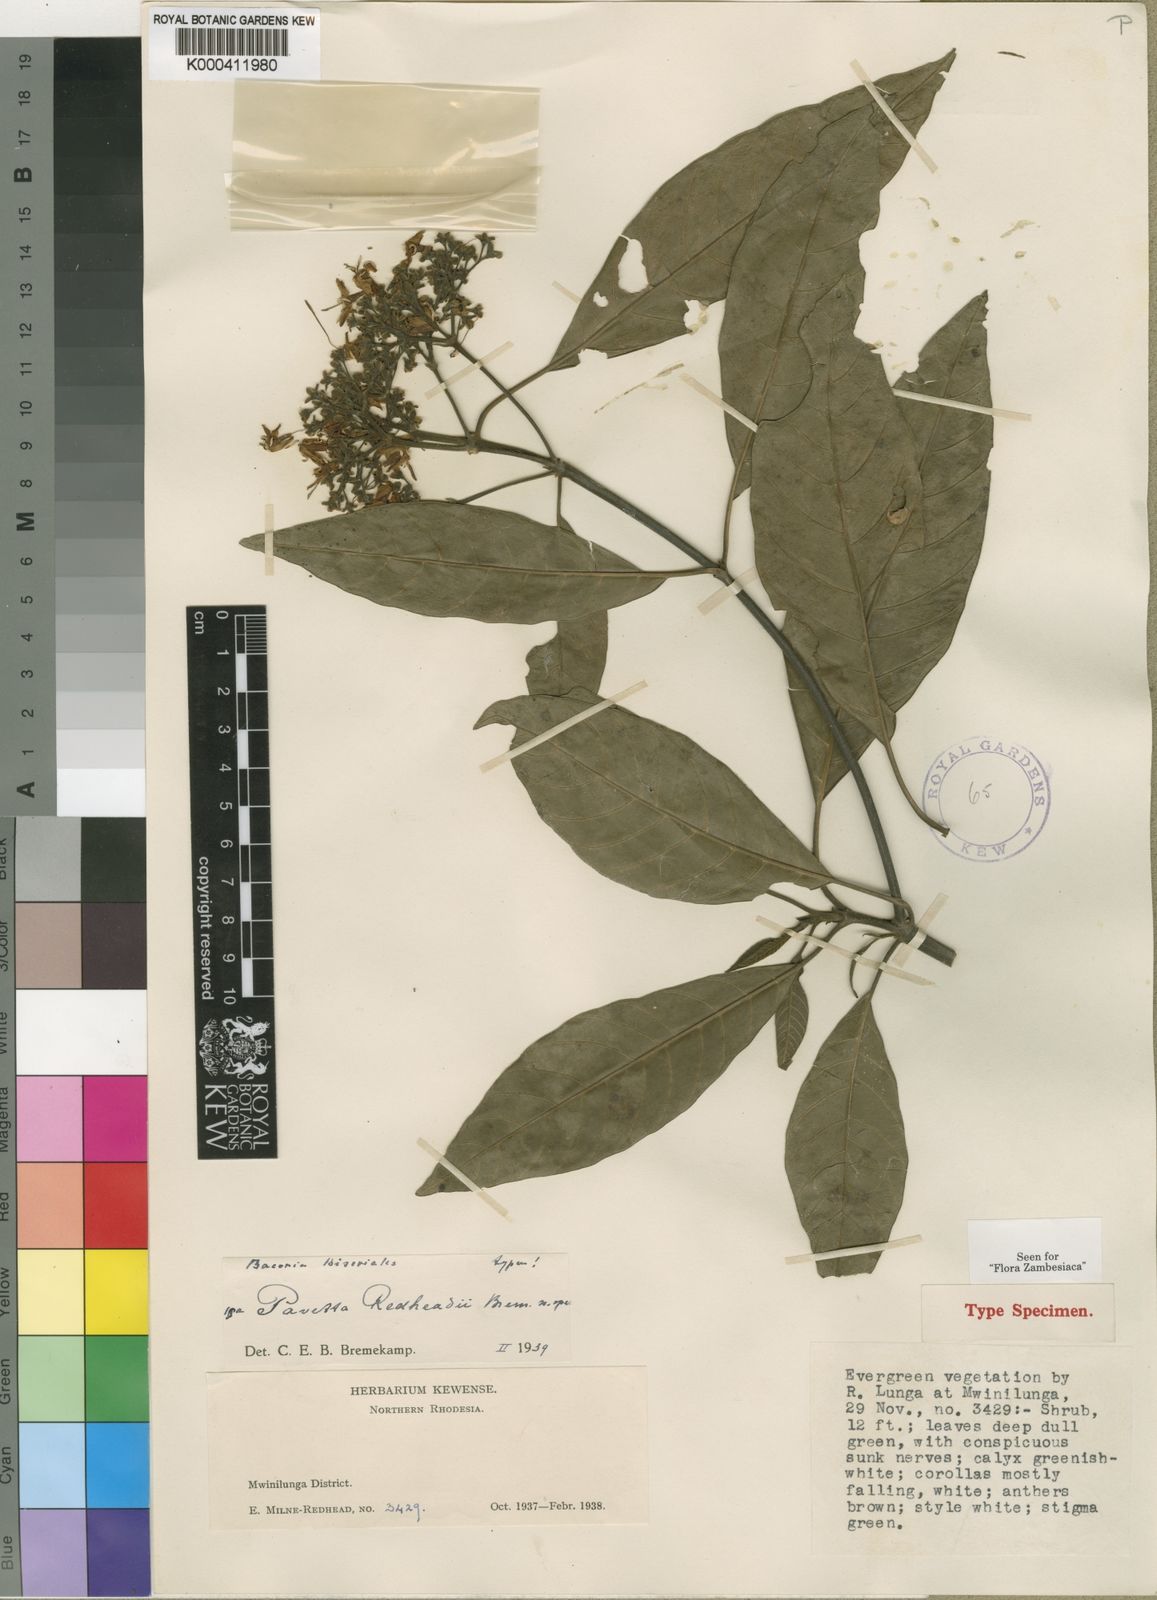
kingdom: Plantae
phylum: Tracheophyta
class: Magnoliopsida
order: Gentianales
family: Rubiaceae
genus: Pavetta
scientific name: Pavetta redheadii
